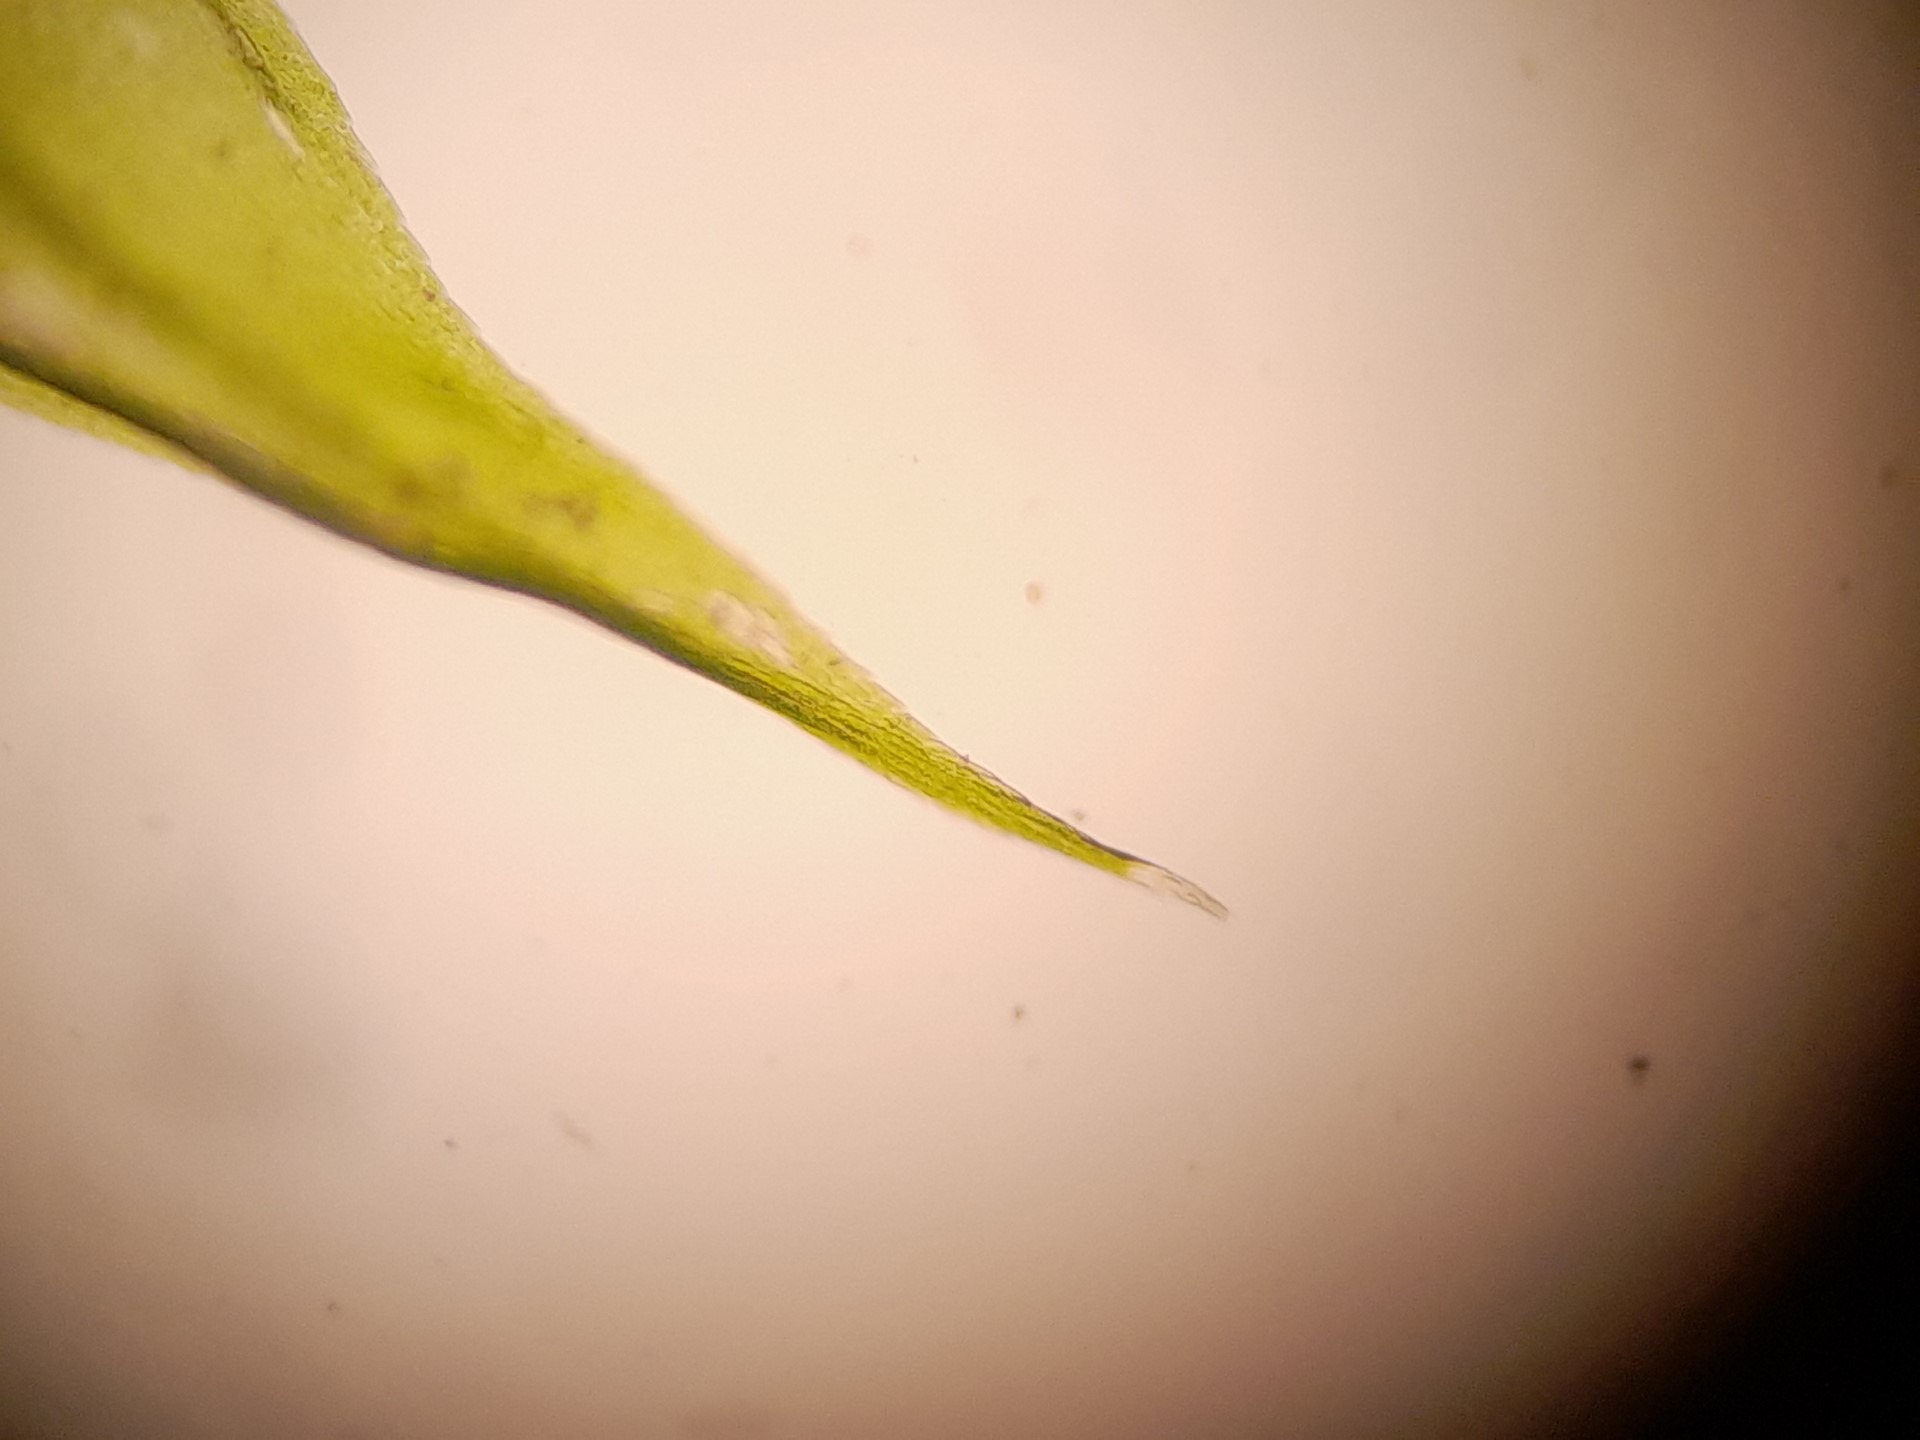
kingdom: Plantae
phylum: Bryophyta
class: Bryopsida
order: Hypnales
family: Brachytheciaceae
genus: Sciuro-hypnum
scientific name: Sciuro-hypnum populeum
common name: Park-kortkapsel
